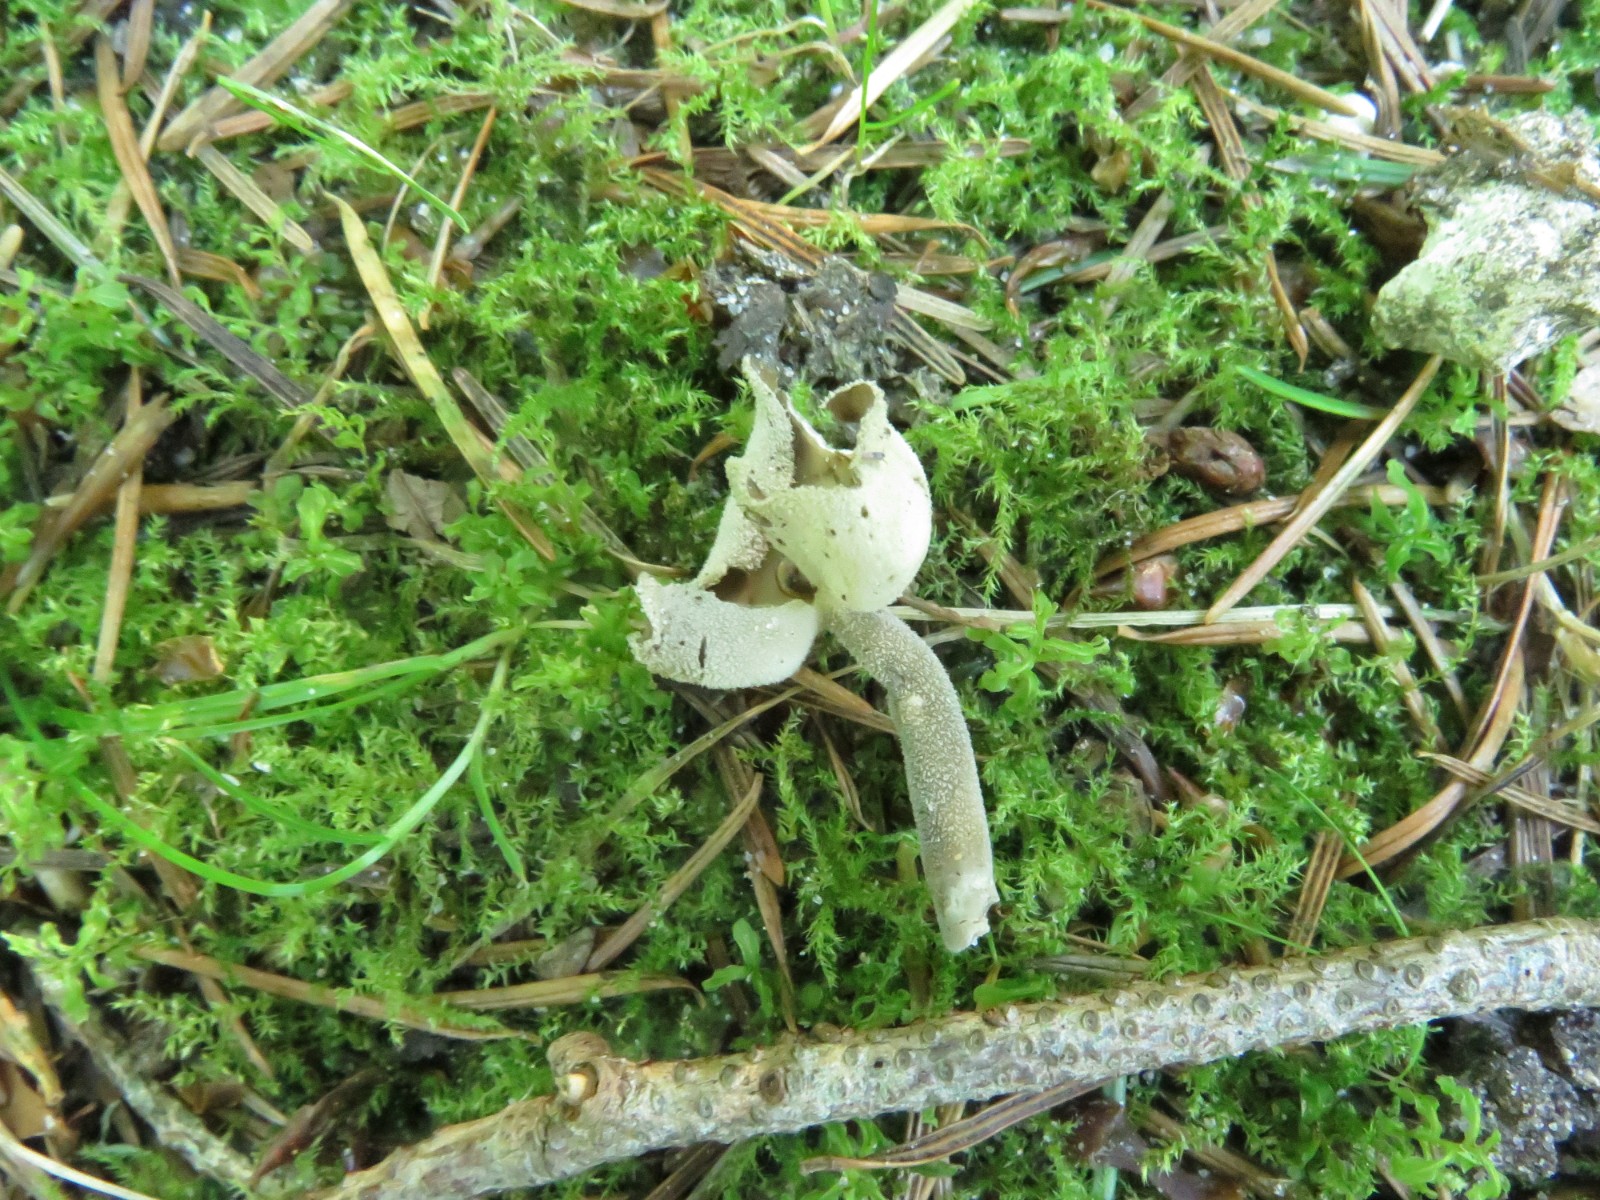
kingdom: Fungi
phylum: Ascomycota
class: Pezizomycetes
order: Pezizales
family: Helvellaceae
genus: Helvella
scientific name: Helvella macropus
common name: højstokket foldhat
